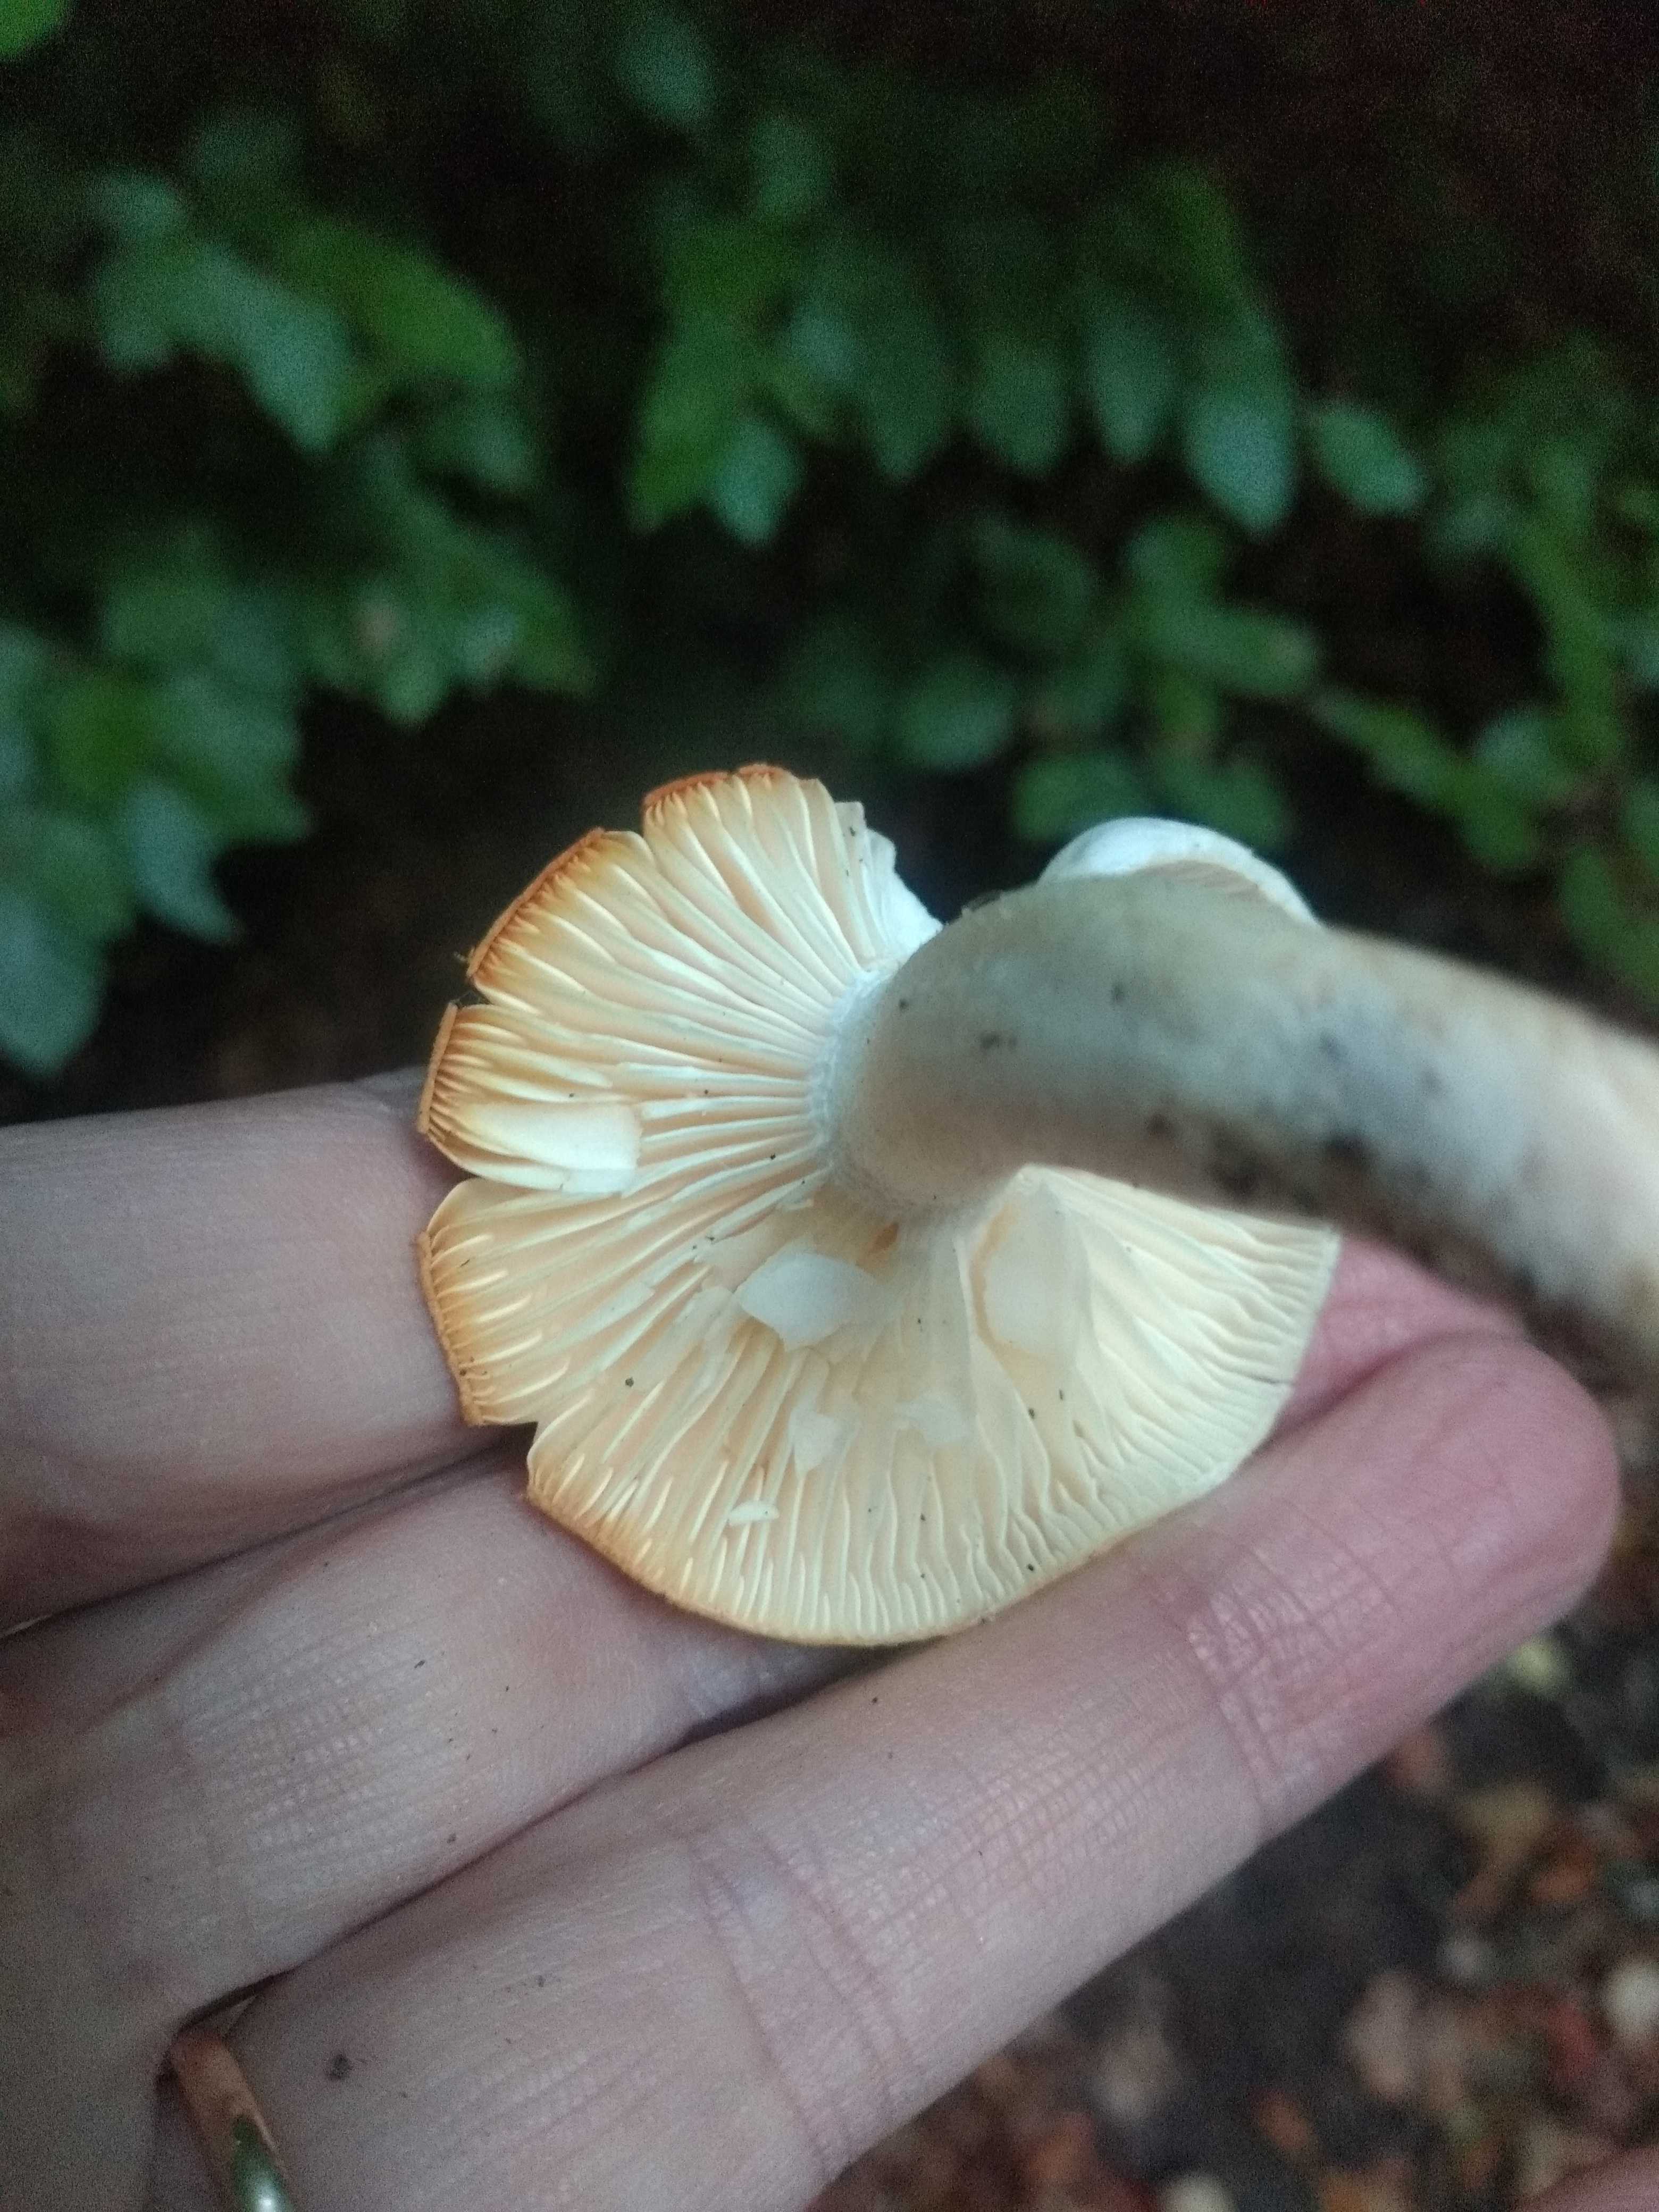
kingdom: Fungi
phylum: Basidiomycota
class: Agaricomycetes
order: Agaricales
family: Hygrophoraceae
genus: Hygrophorus
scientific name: Hygrophorus discoxanthus
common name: ildelugtende sneglehat
